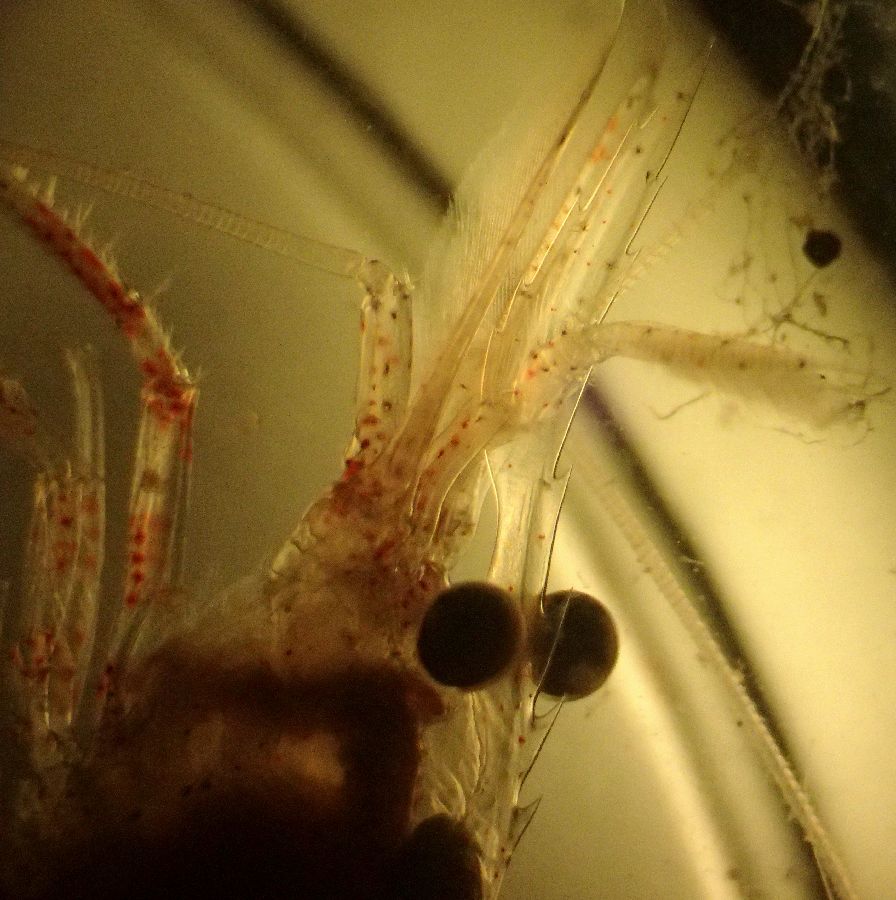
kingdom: Animalia
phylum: Arthropoda
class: Malacostraca
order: Decapoda
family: Thoridae
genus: Eualus
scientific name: Eualus gaimardii
